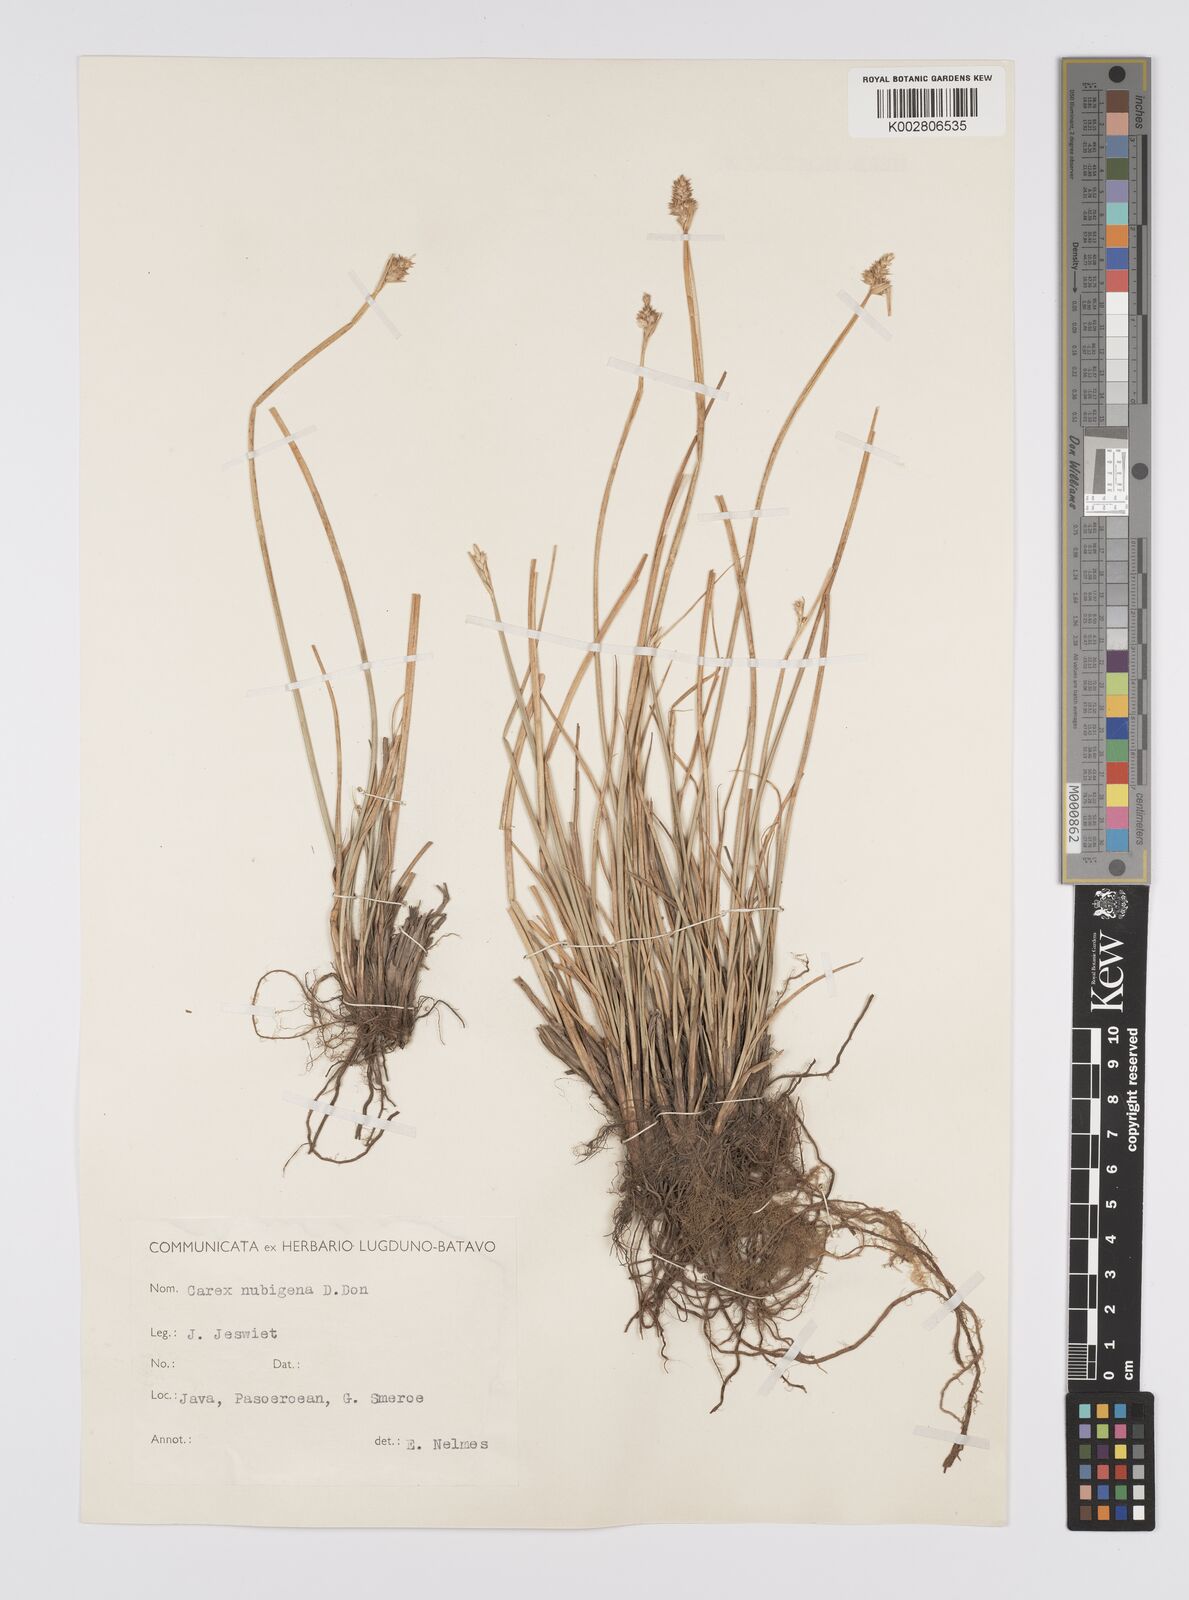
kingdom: Plantae
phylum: Tracheophyta
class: Liliopsida
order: Poales
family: Cyperaceae
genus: Carex
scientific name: Carex
